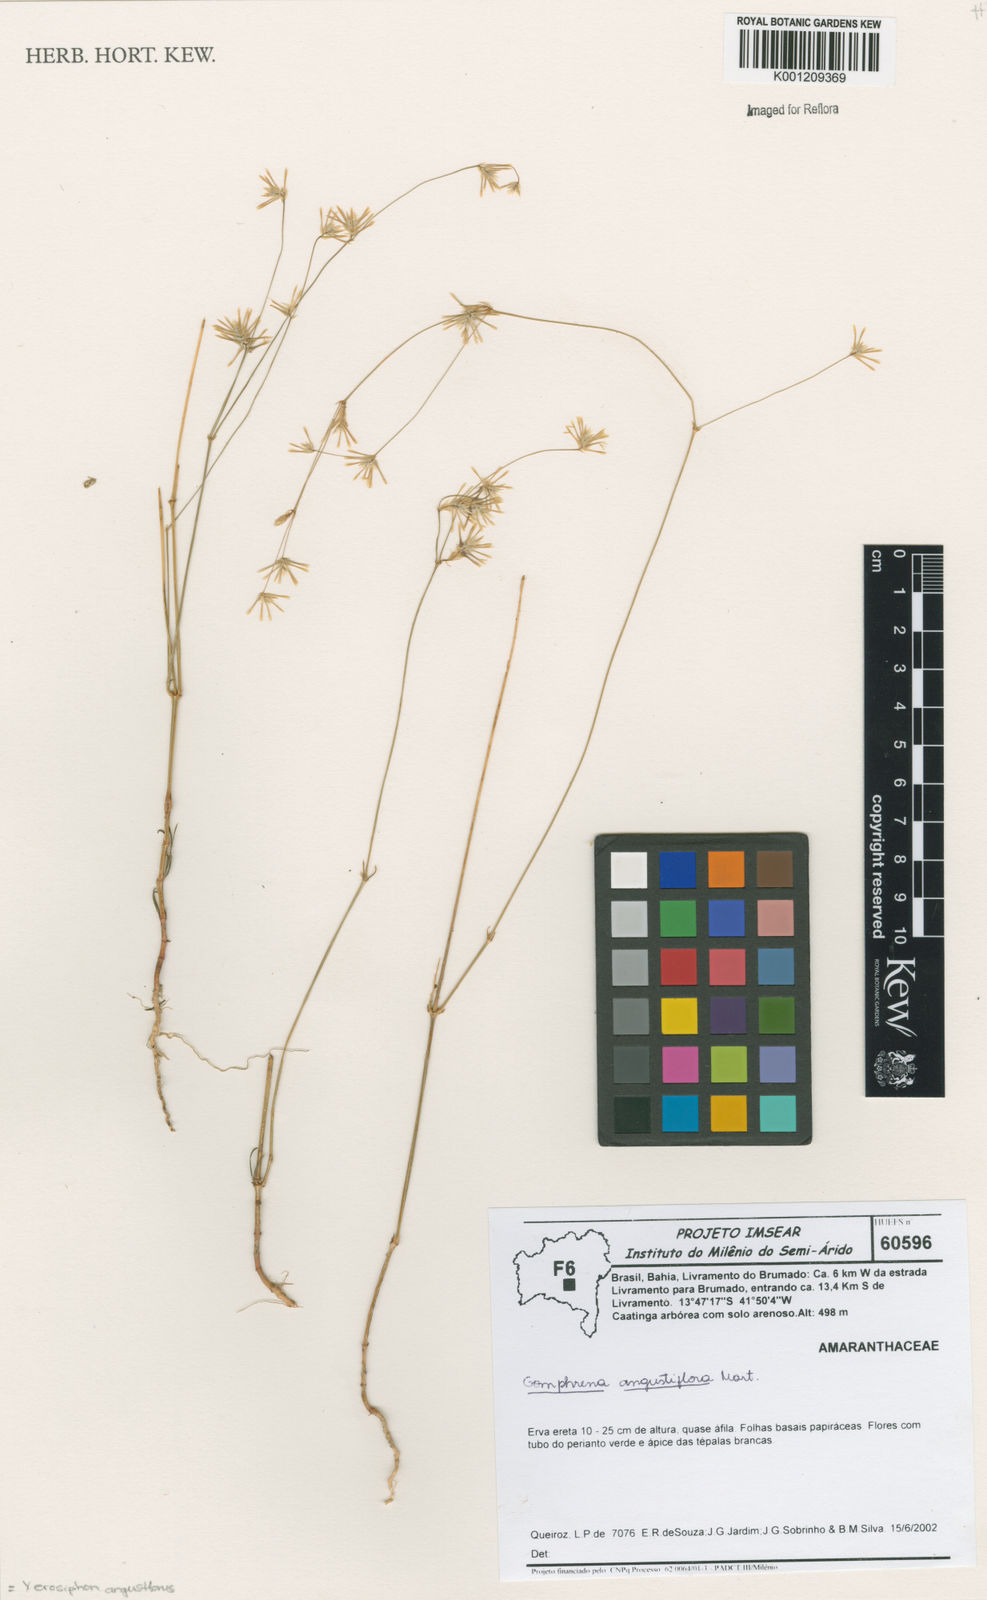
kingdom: Plantae
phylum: Tracheophyta
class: Magnoliopsida
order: Caryophyllales
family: Amaranthaceae
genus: Gomphrena
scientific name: Gomphrena angustiflora
